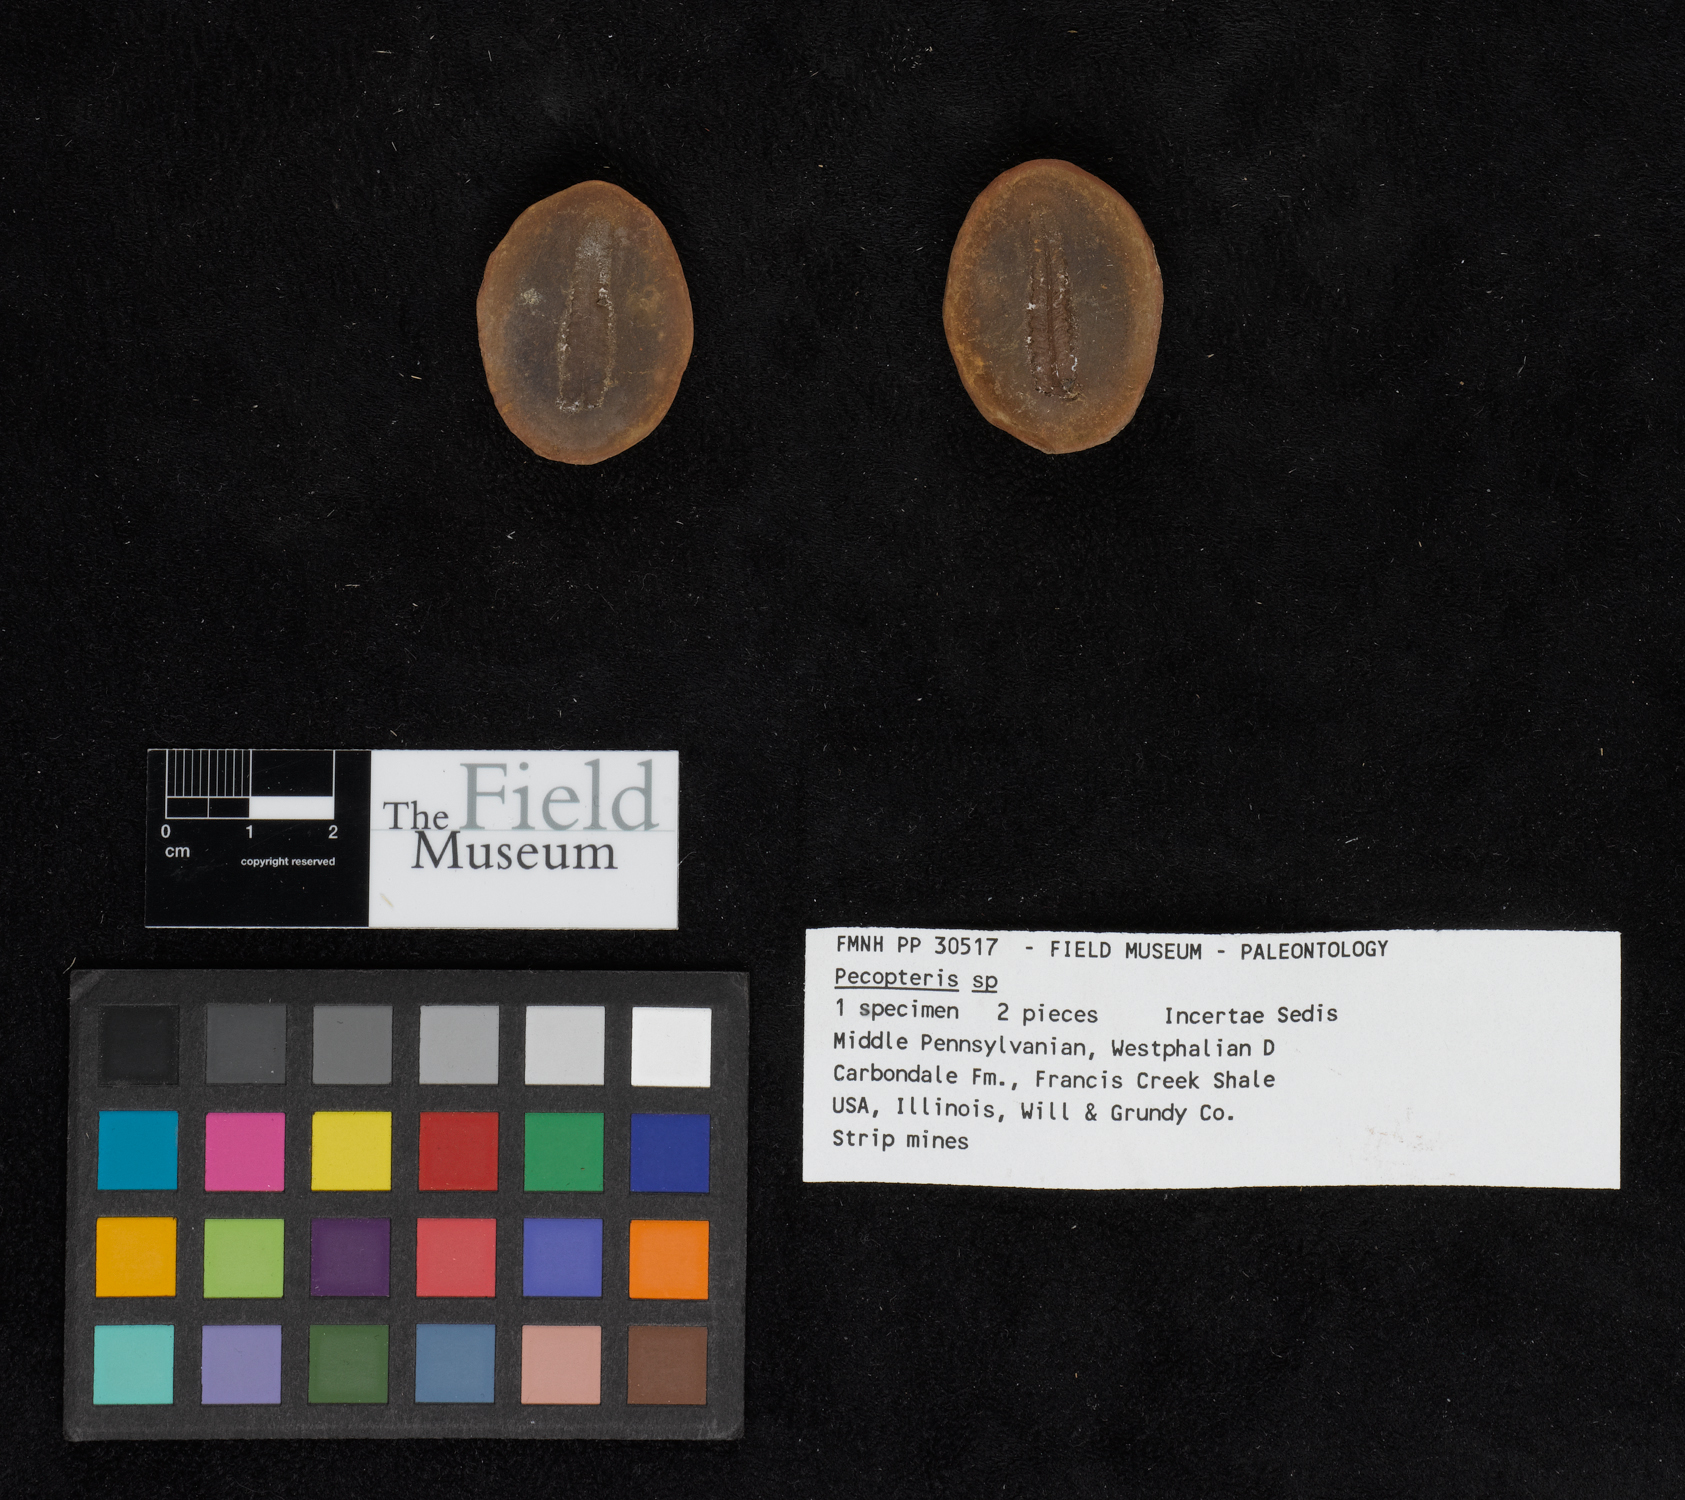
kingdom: Plantae
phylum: Tracheophyta
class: Polypodiopsida
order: Marattiales
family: Asterothecaceae
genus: Pecopteris
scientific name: Pecopteris
